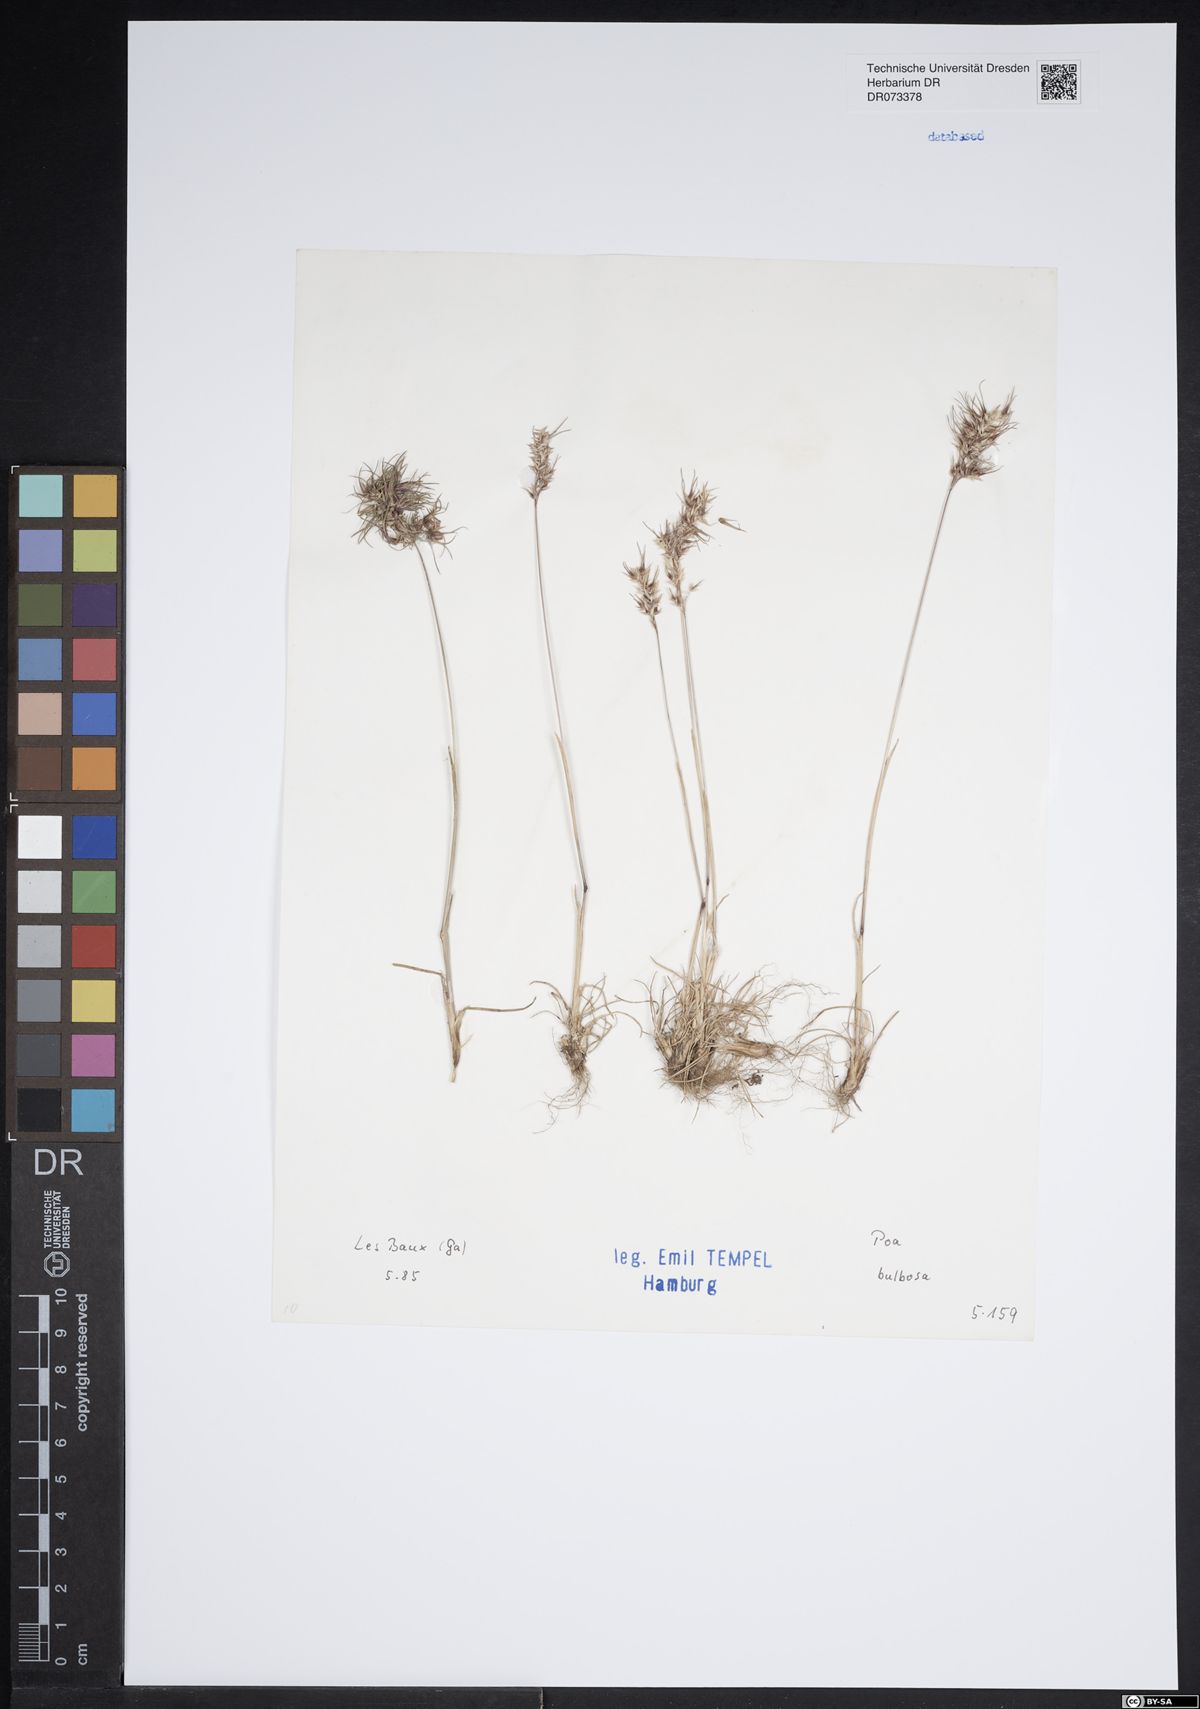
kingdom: Plantae
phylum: Tracheophyta
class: Liliopsida
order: Poales
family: Poaceae
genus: Poa
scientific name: Poa bulbosa
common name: Bulbous bluegrass
